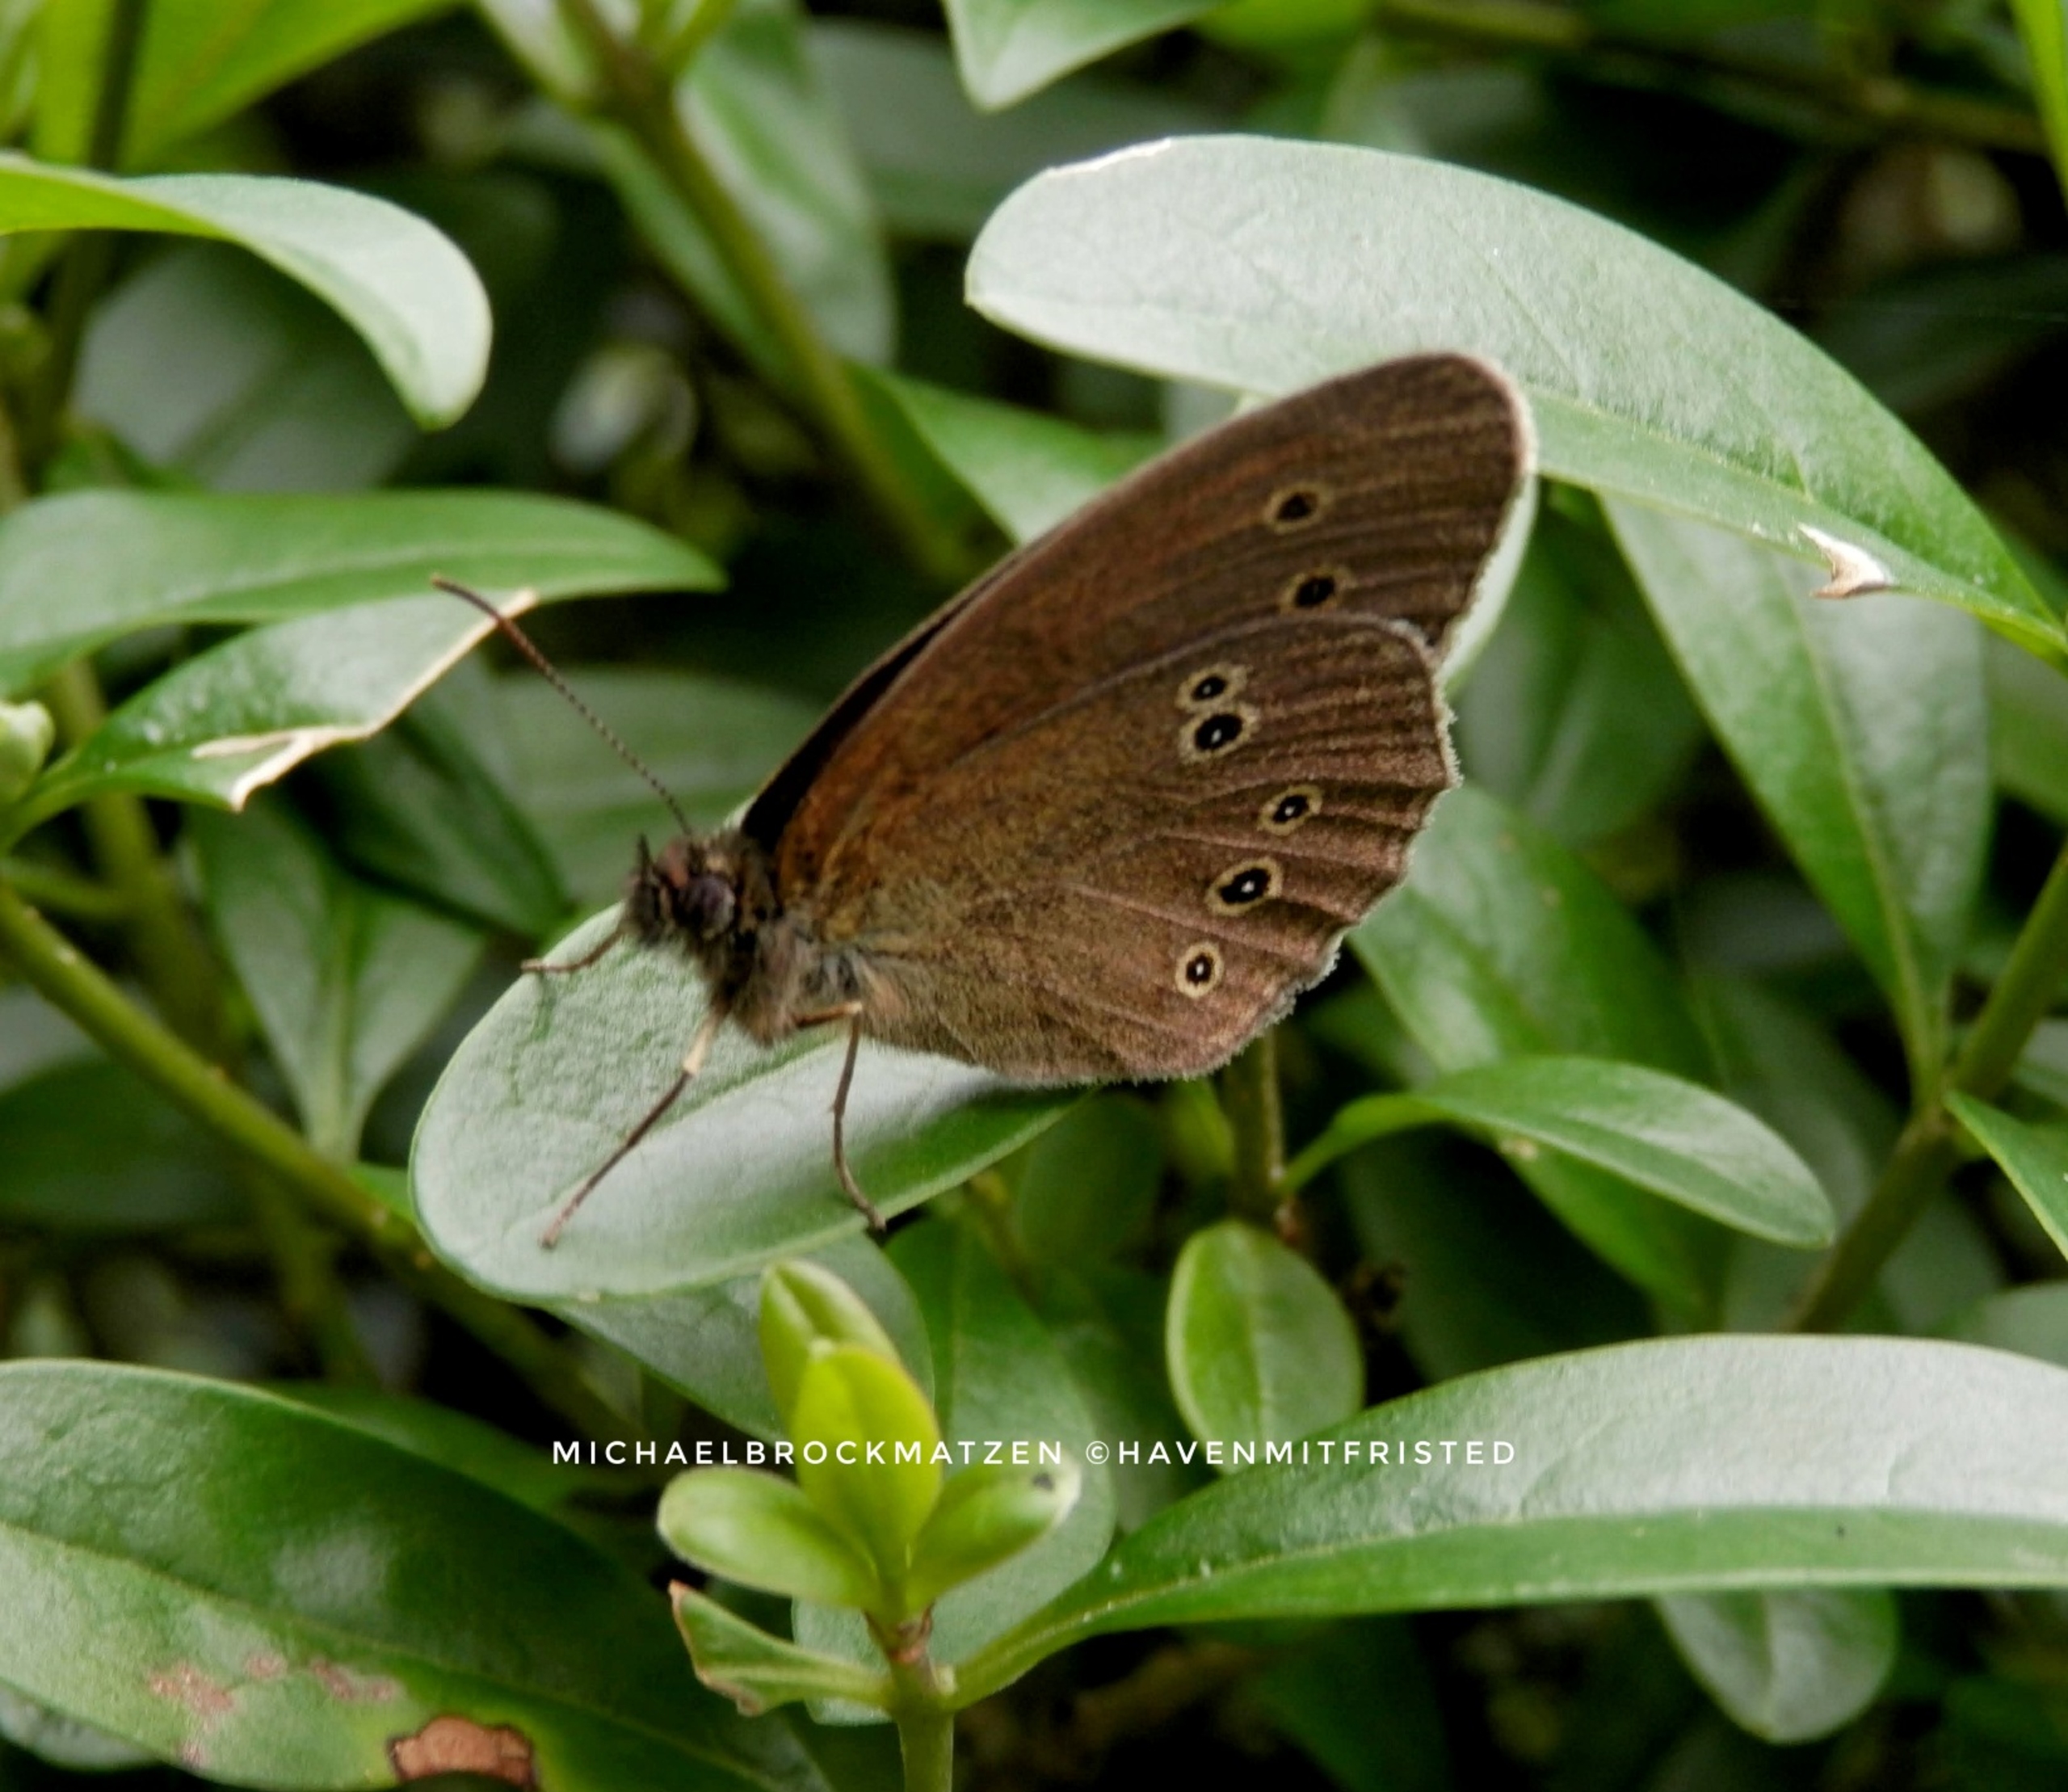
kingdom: Animalia
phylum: Arthropoda
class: Insecta
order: Lepidoptera
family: Nymphalidae
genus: Aphantopus
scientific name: Aphantopus hyperantus
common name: Engrandøje
